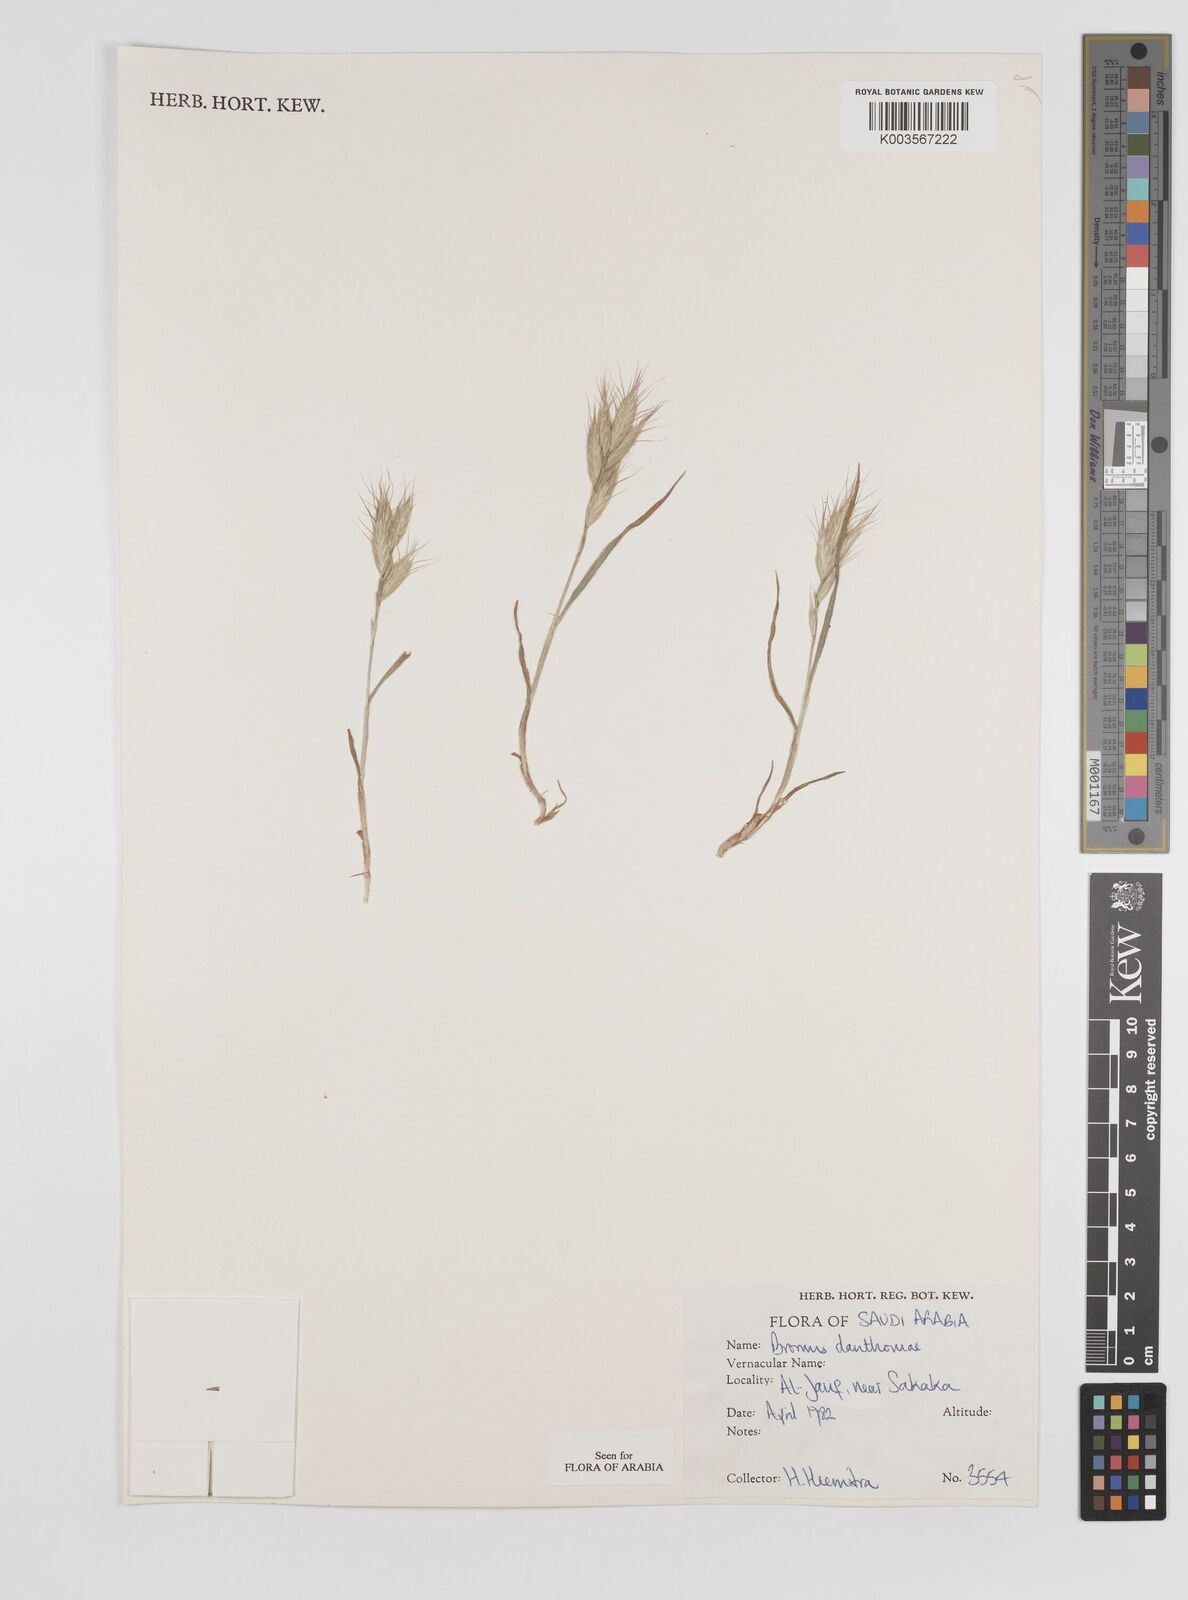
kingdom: Plantae
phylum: Tracheophyta
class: Liliopsida
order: Poales
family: Poaceae
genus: Bromus
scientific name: Bromus danthoniae
